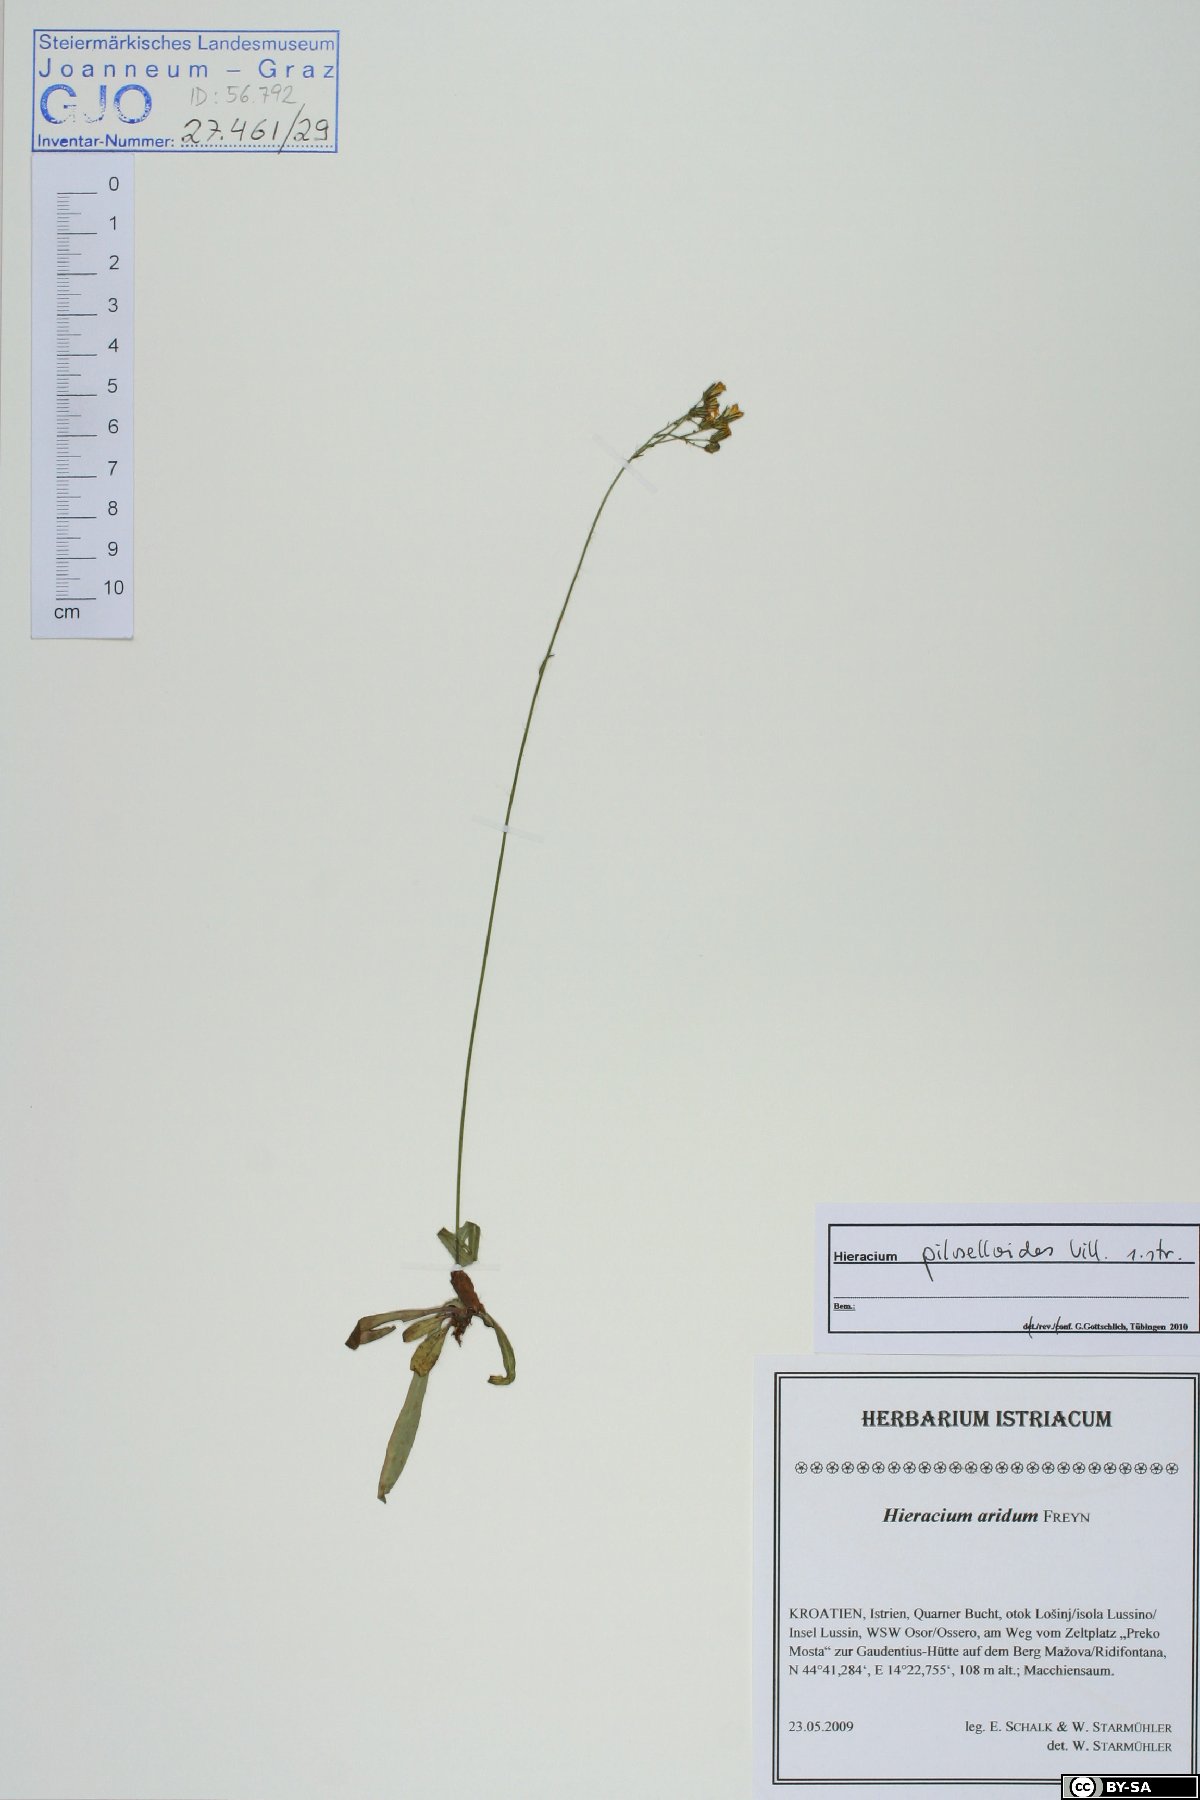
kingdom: Plantae
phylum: Tracheophyta
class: Magnoliopsida
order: Asterales
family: Asteraceae
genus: Pilosella
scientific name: Pilosella piloselloides
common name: Glaucous king-devil
